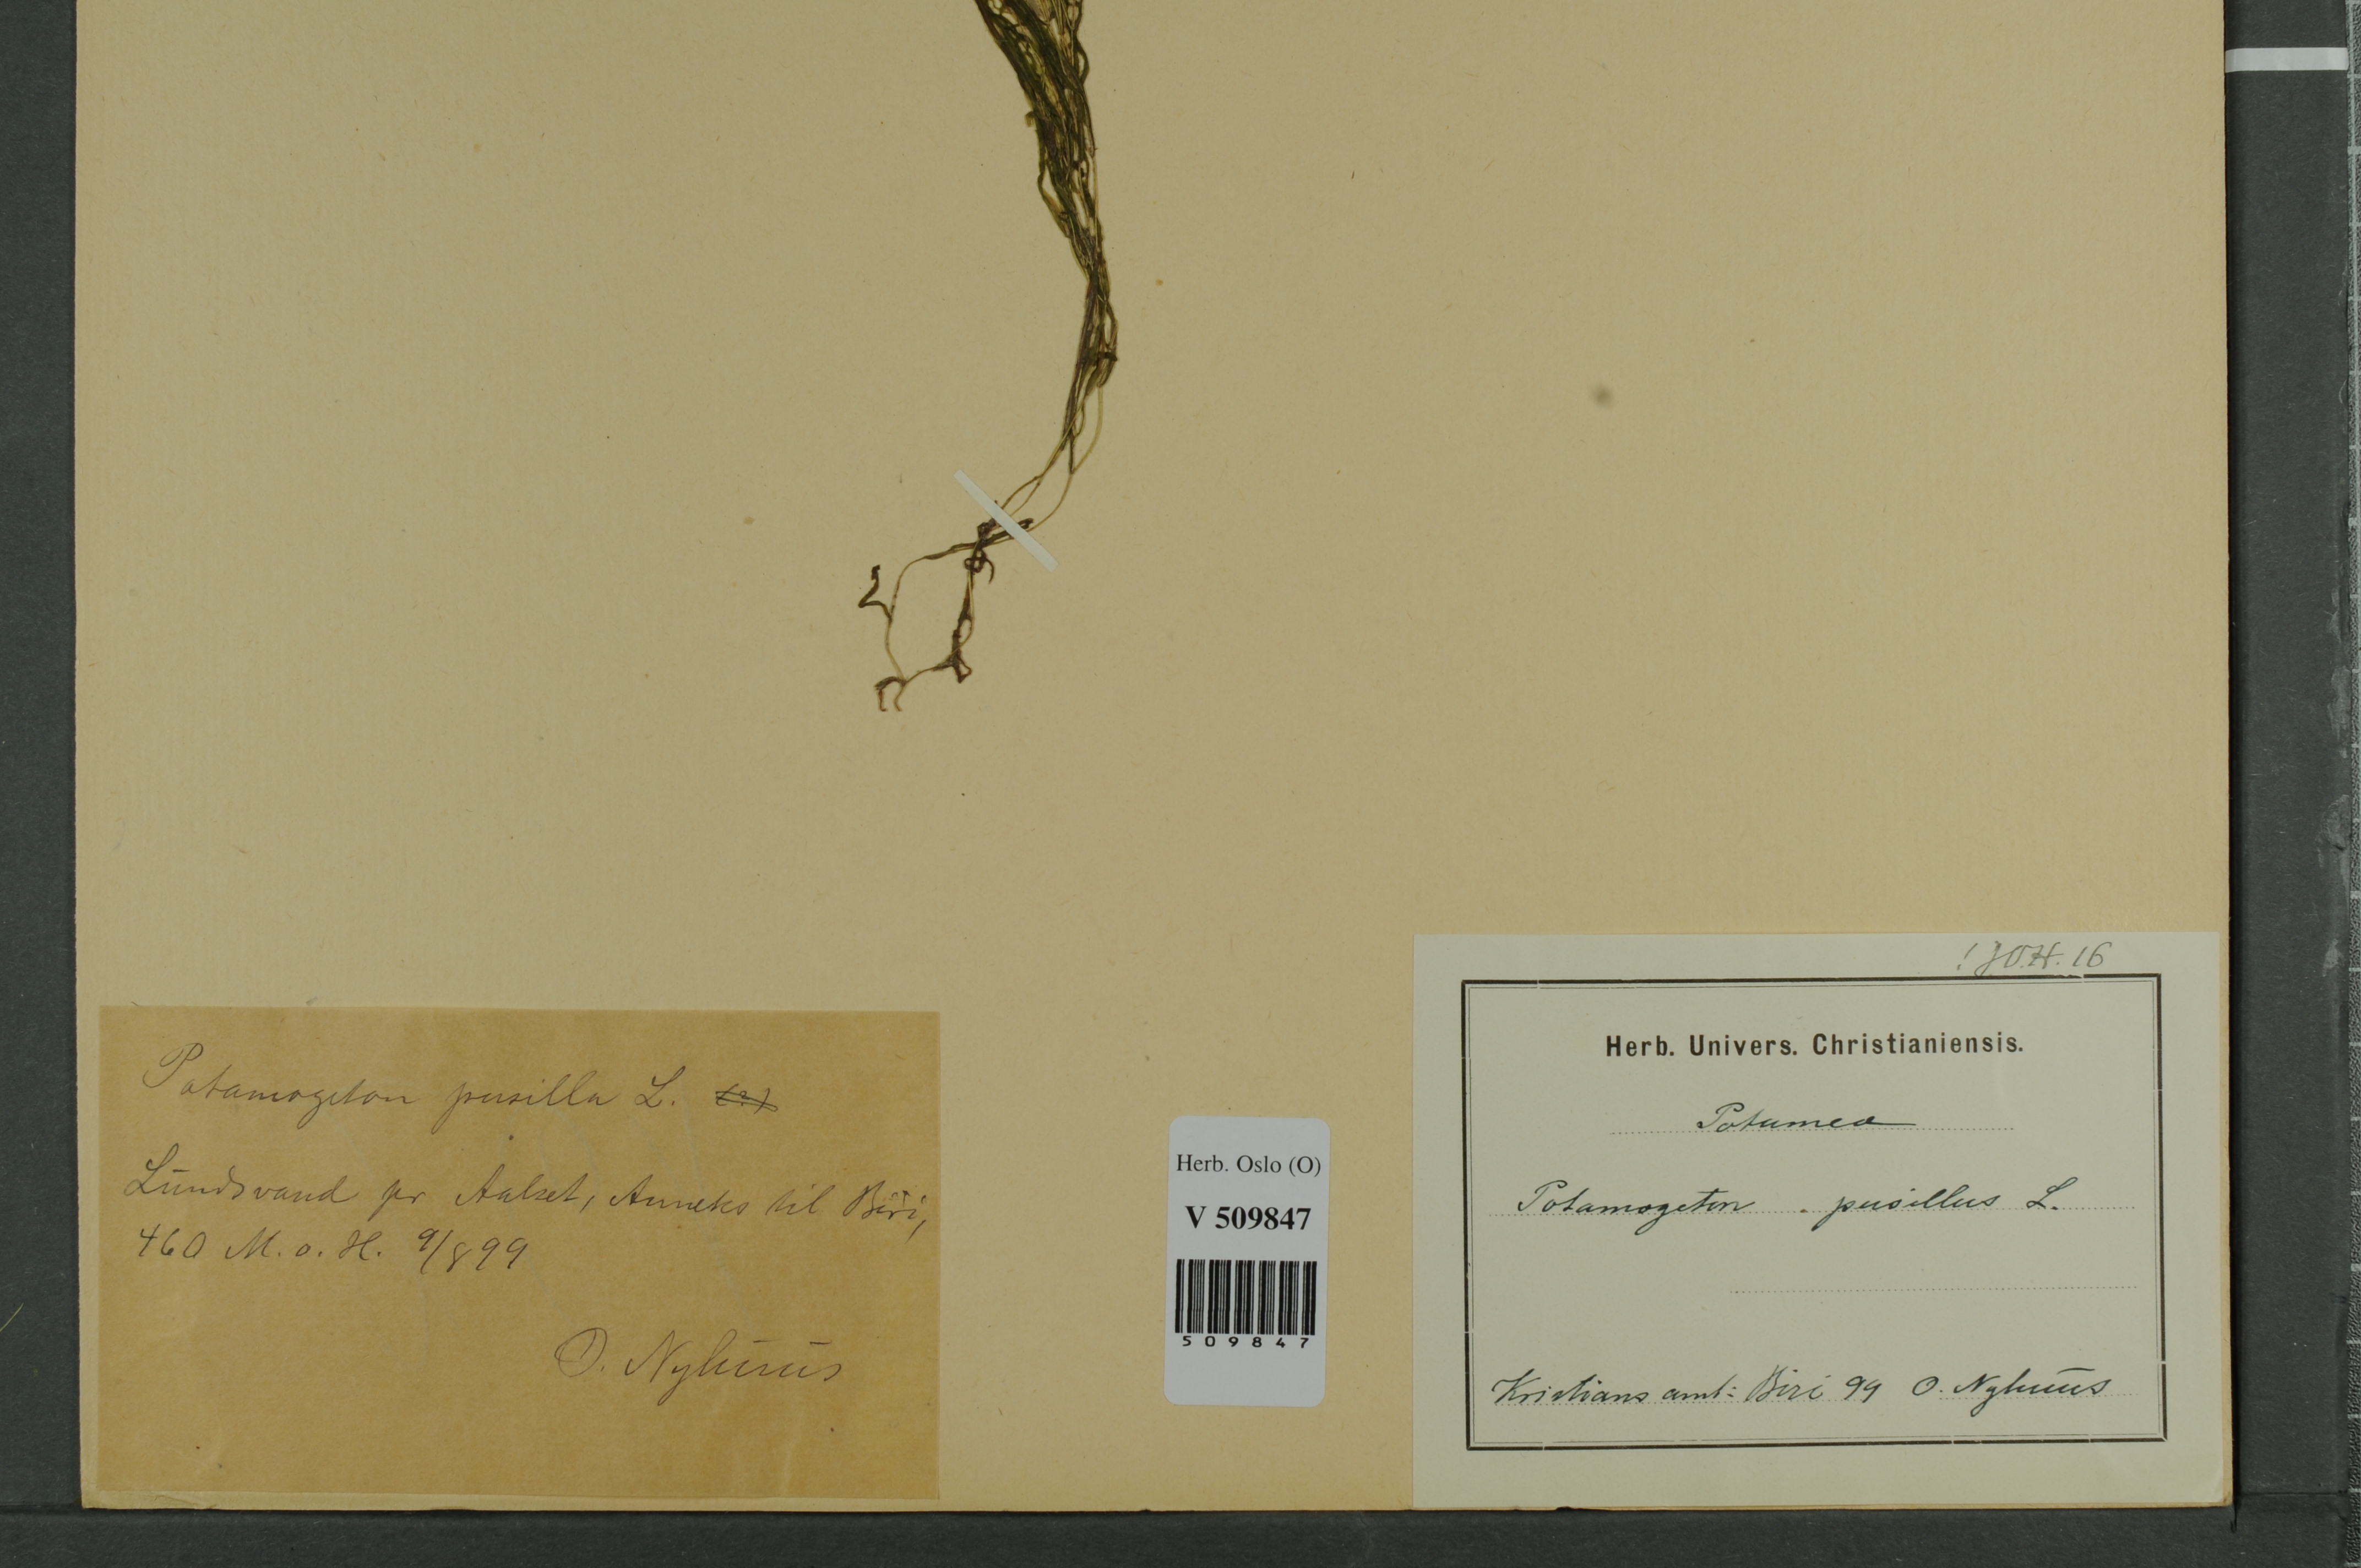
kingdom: Plantae
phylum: Tracheophyta
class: Liliopsida
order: Alismatales
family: Potamogetonaceae
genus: Potamogeton
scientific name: Potamogeton berchtoldii
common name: Small pondweed
